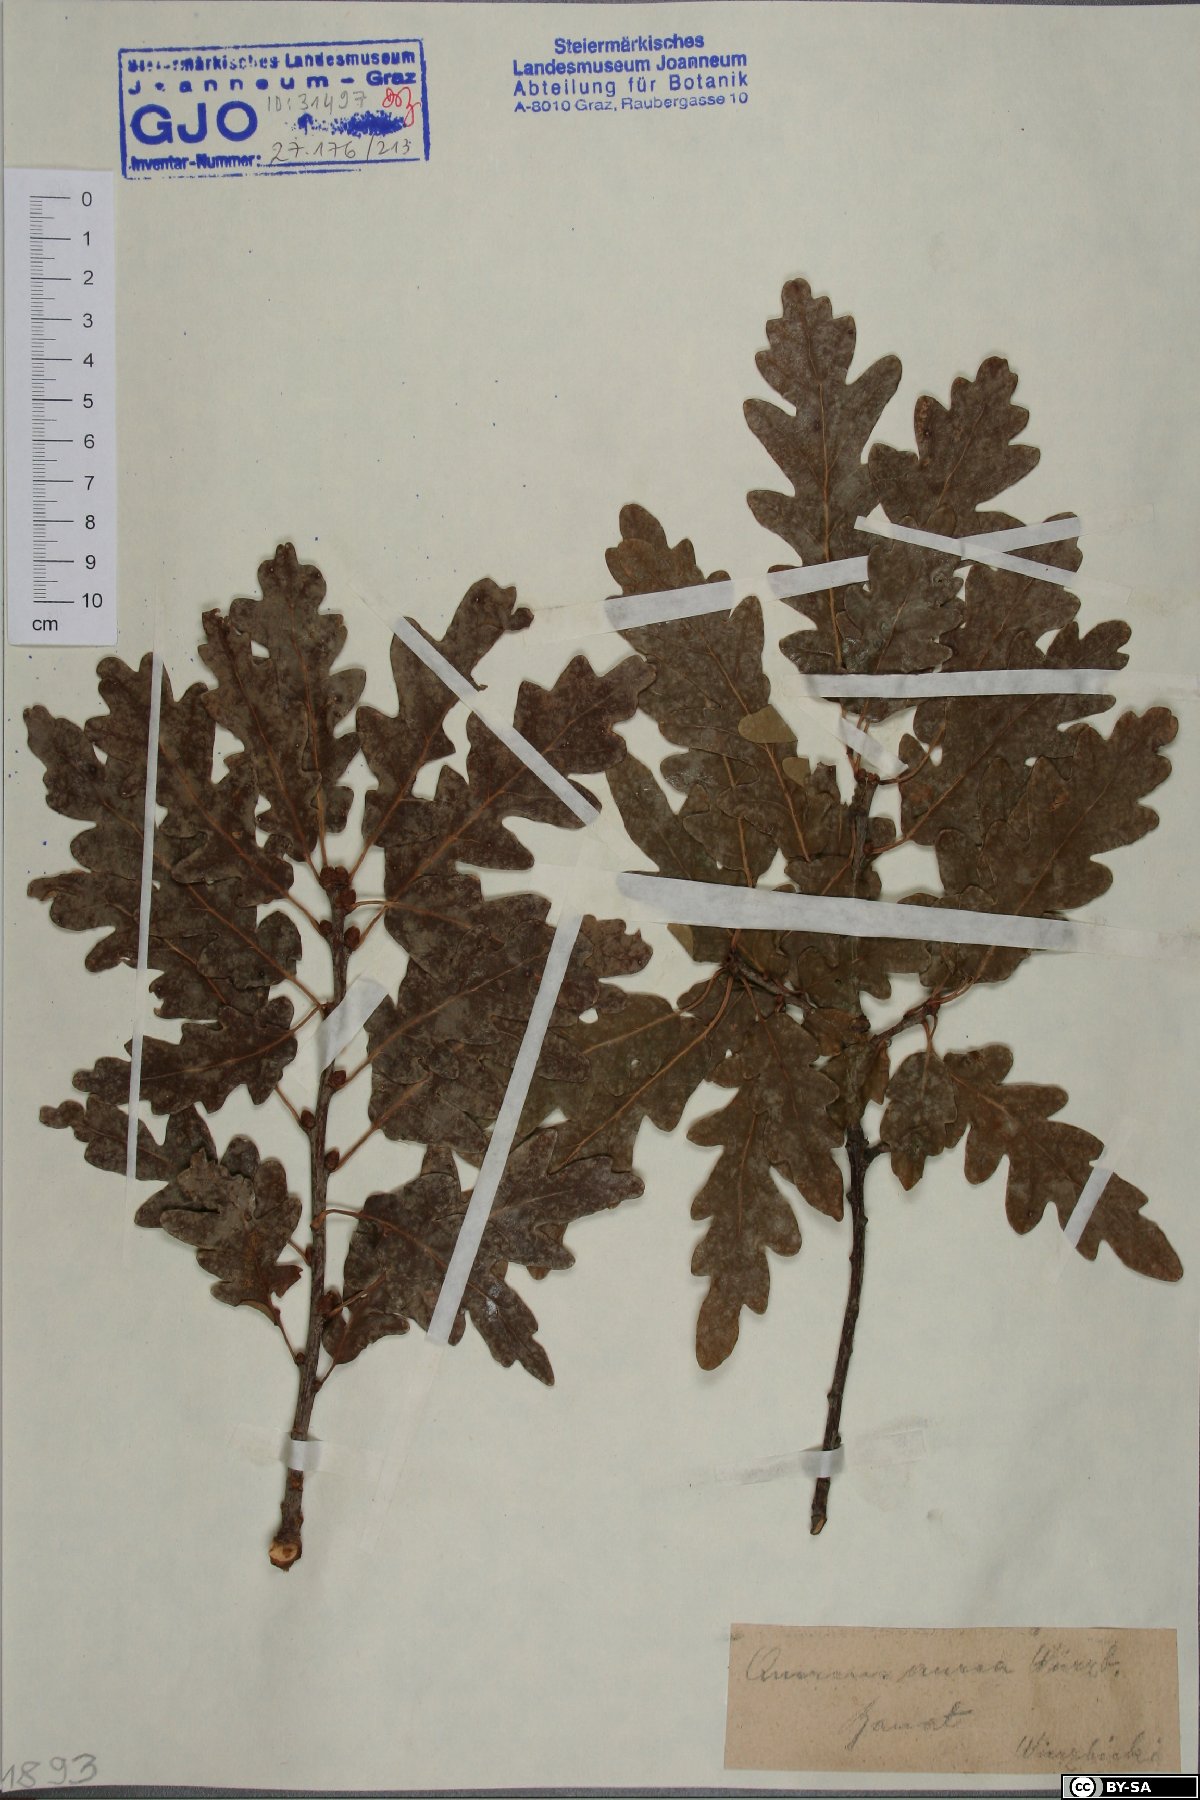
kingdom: Plantae
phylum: Tracheophyta
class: Magnoliopsida
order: Fagales
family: Fagaceae
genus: Quercus
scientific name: Quercus dalechampii
